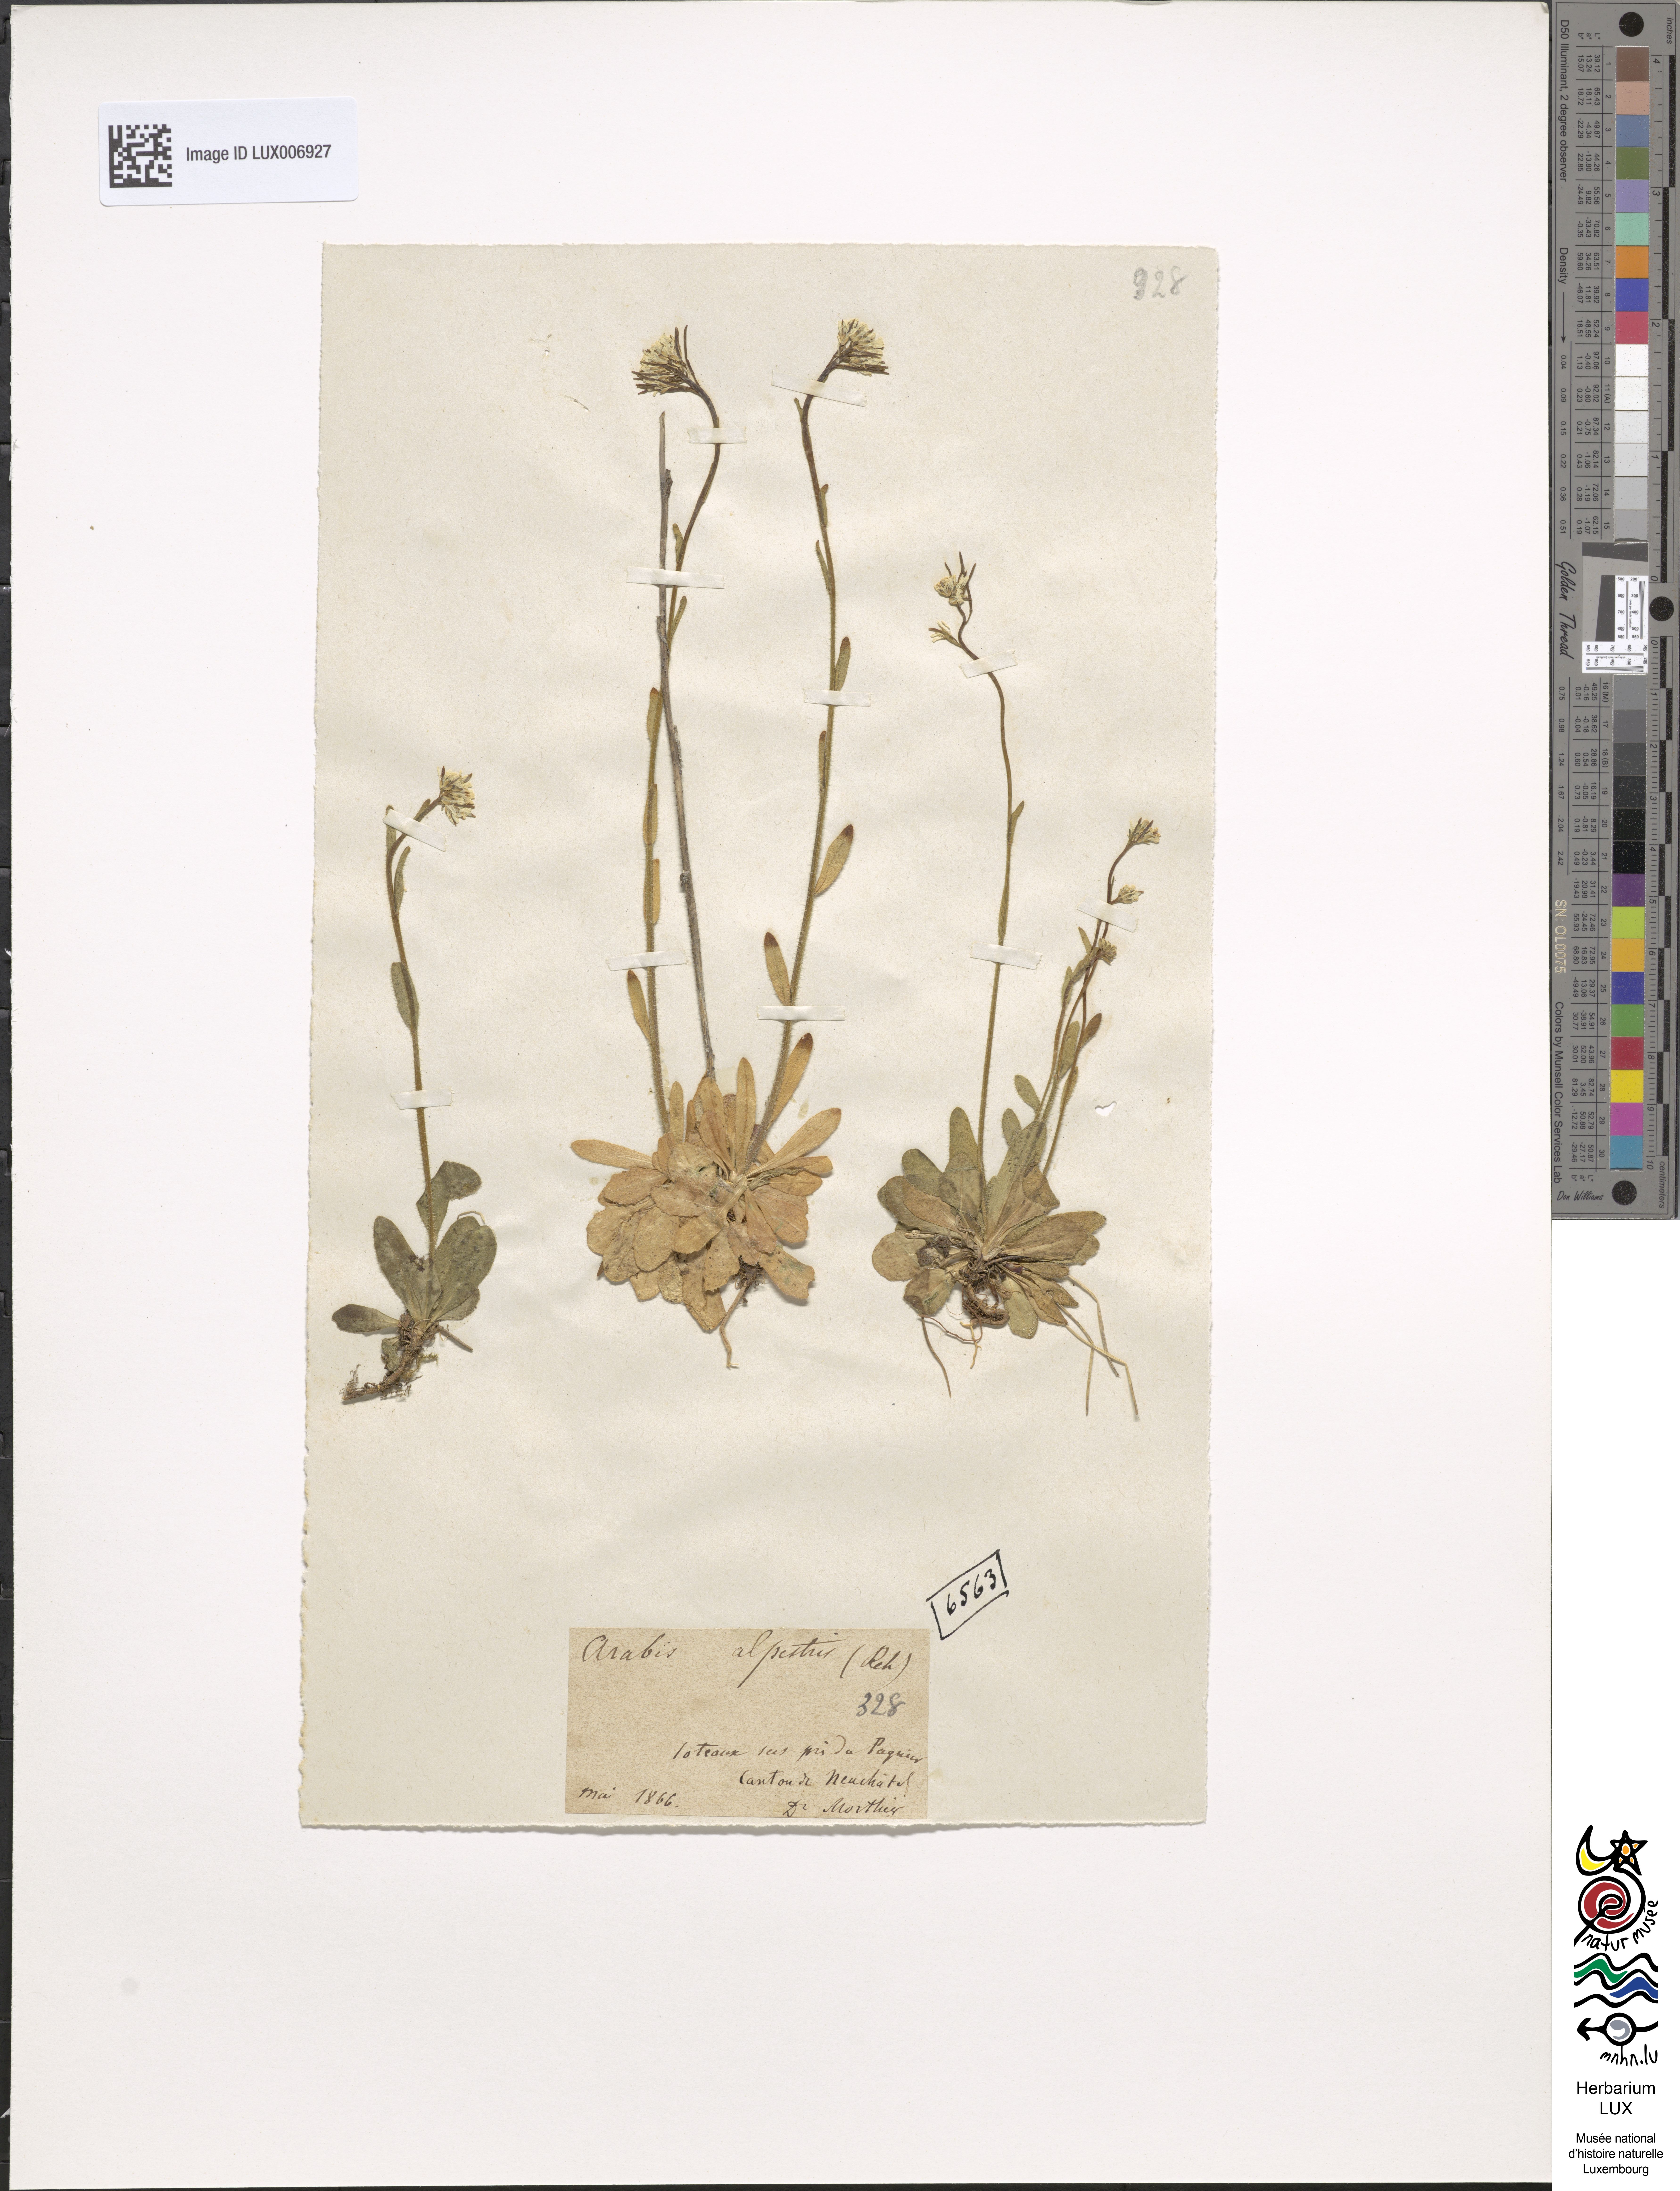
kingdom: Plantae
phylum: Tracheophyta
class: Magnoliopsida
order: Brassicales
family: Brassicaceae
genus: Arabis
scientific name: Arabis ciliata
